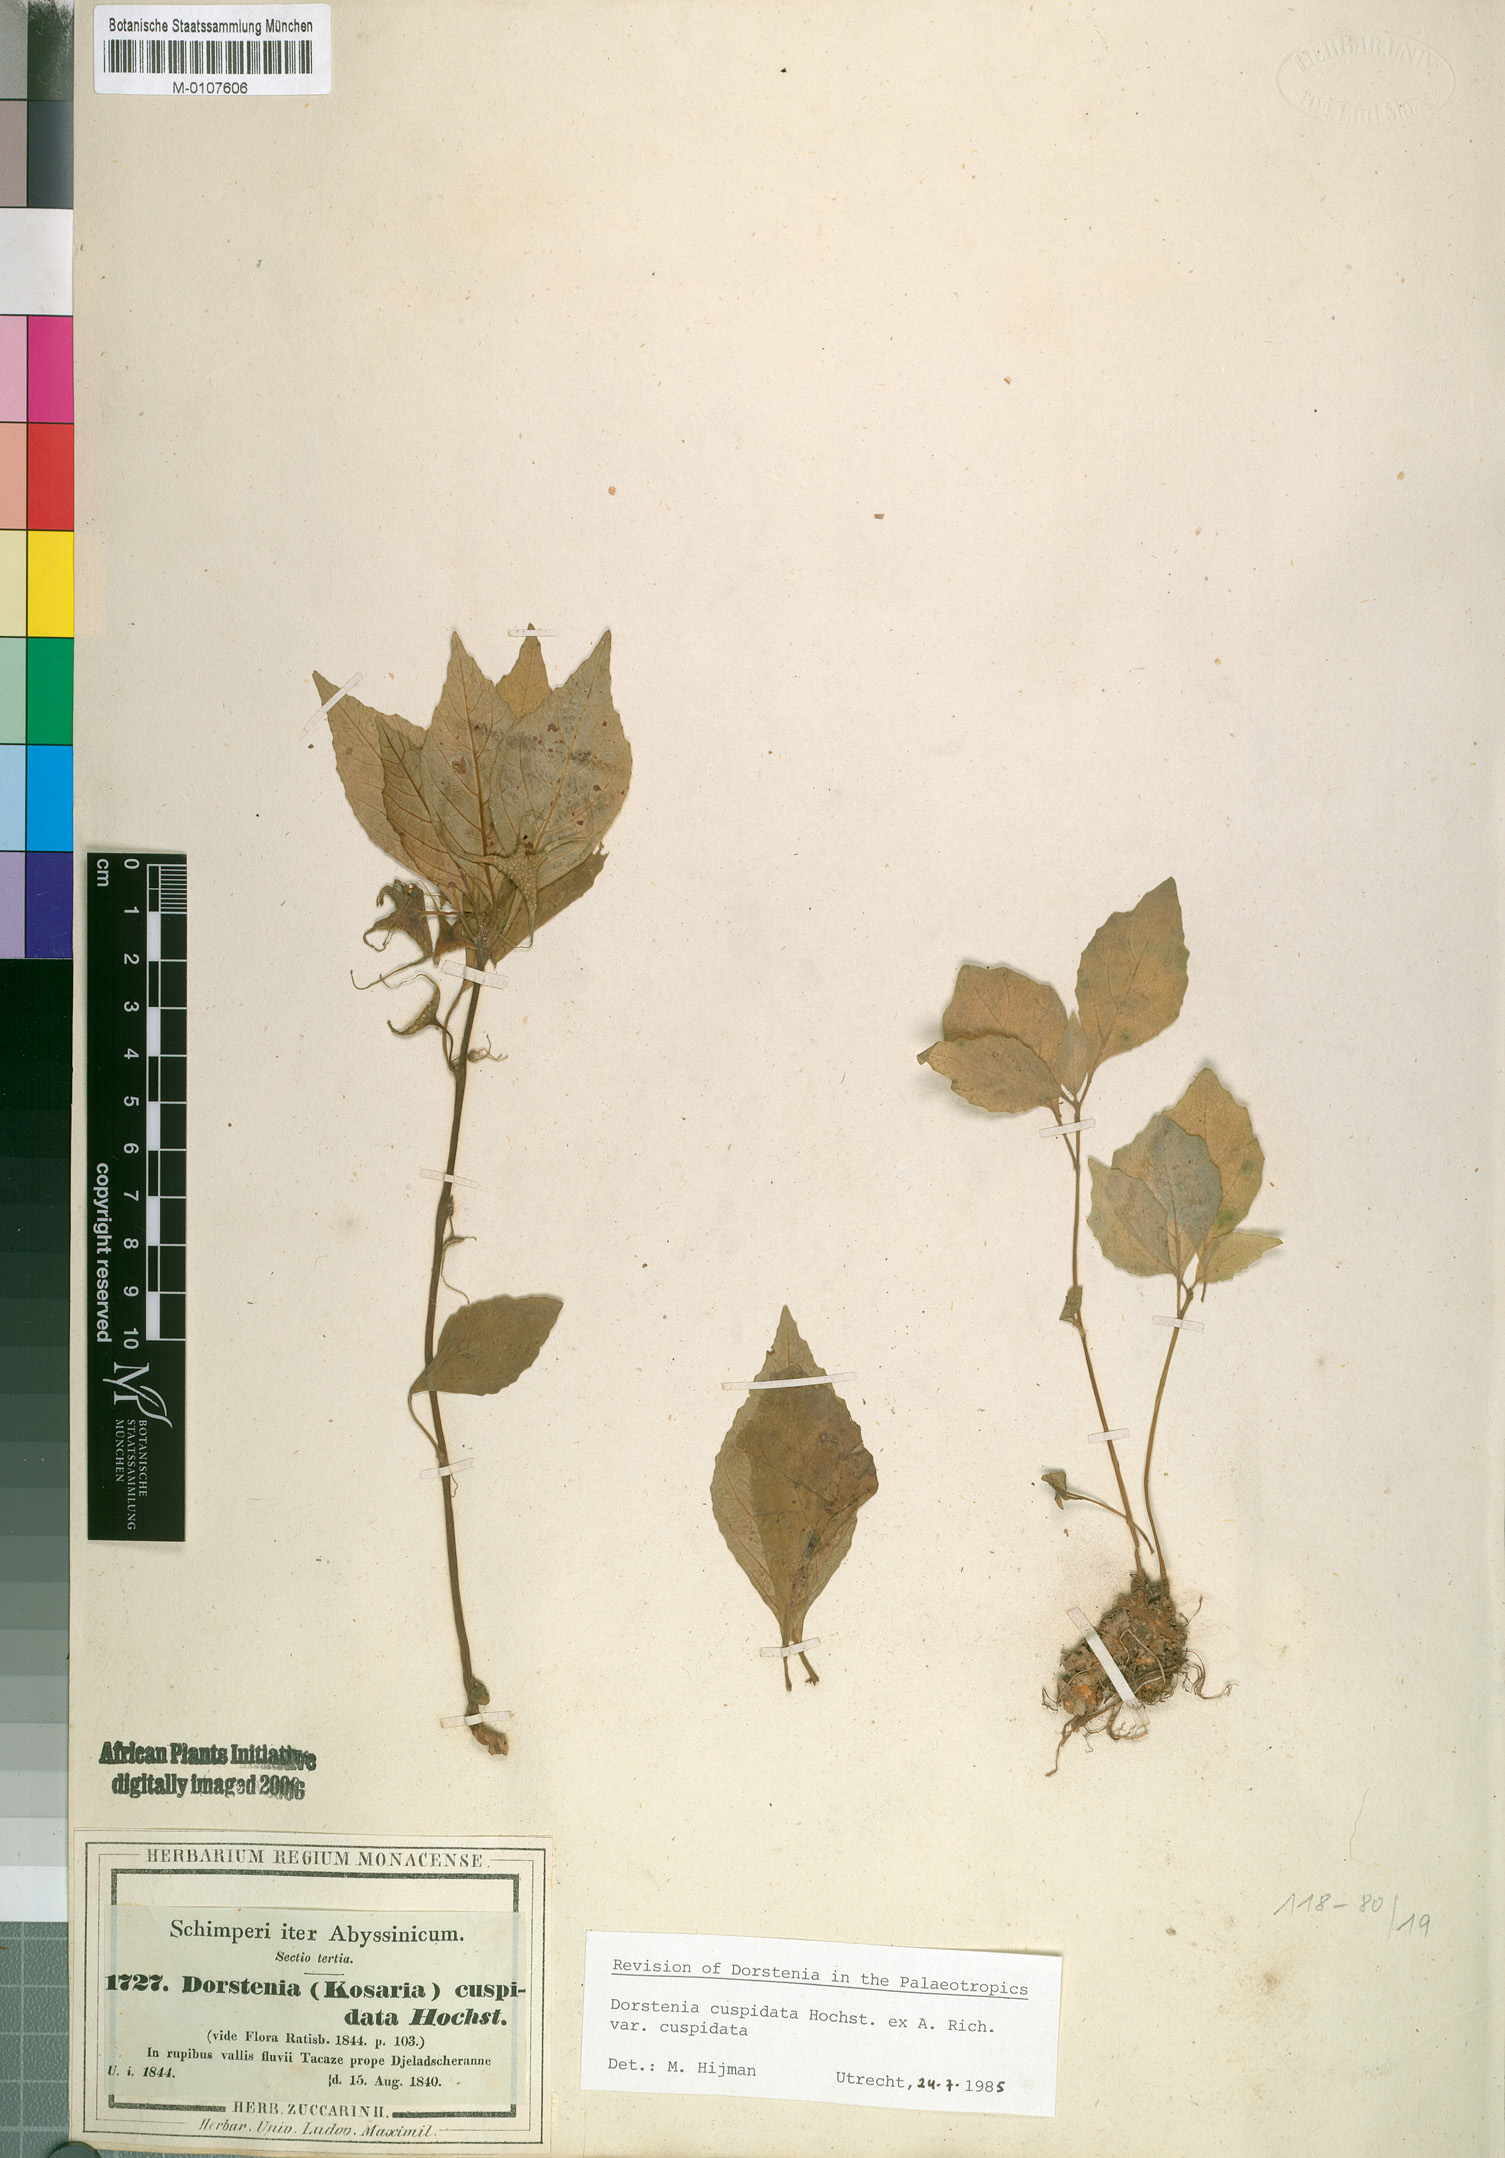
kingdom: Plantae
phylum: Tracheophyta
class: Magnoliopsida
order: Rosales
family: Moraceae
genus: Dorstenia
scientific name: Dorstenia cuspidata
